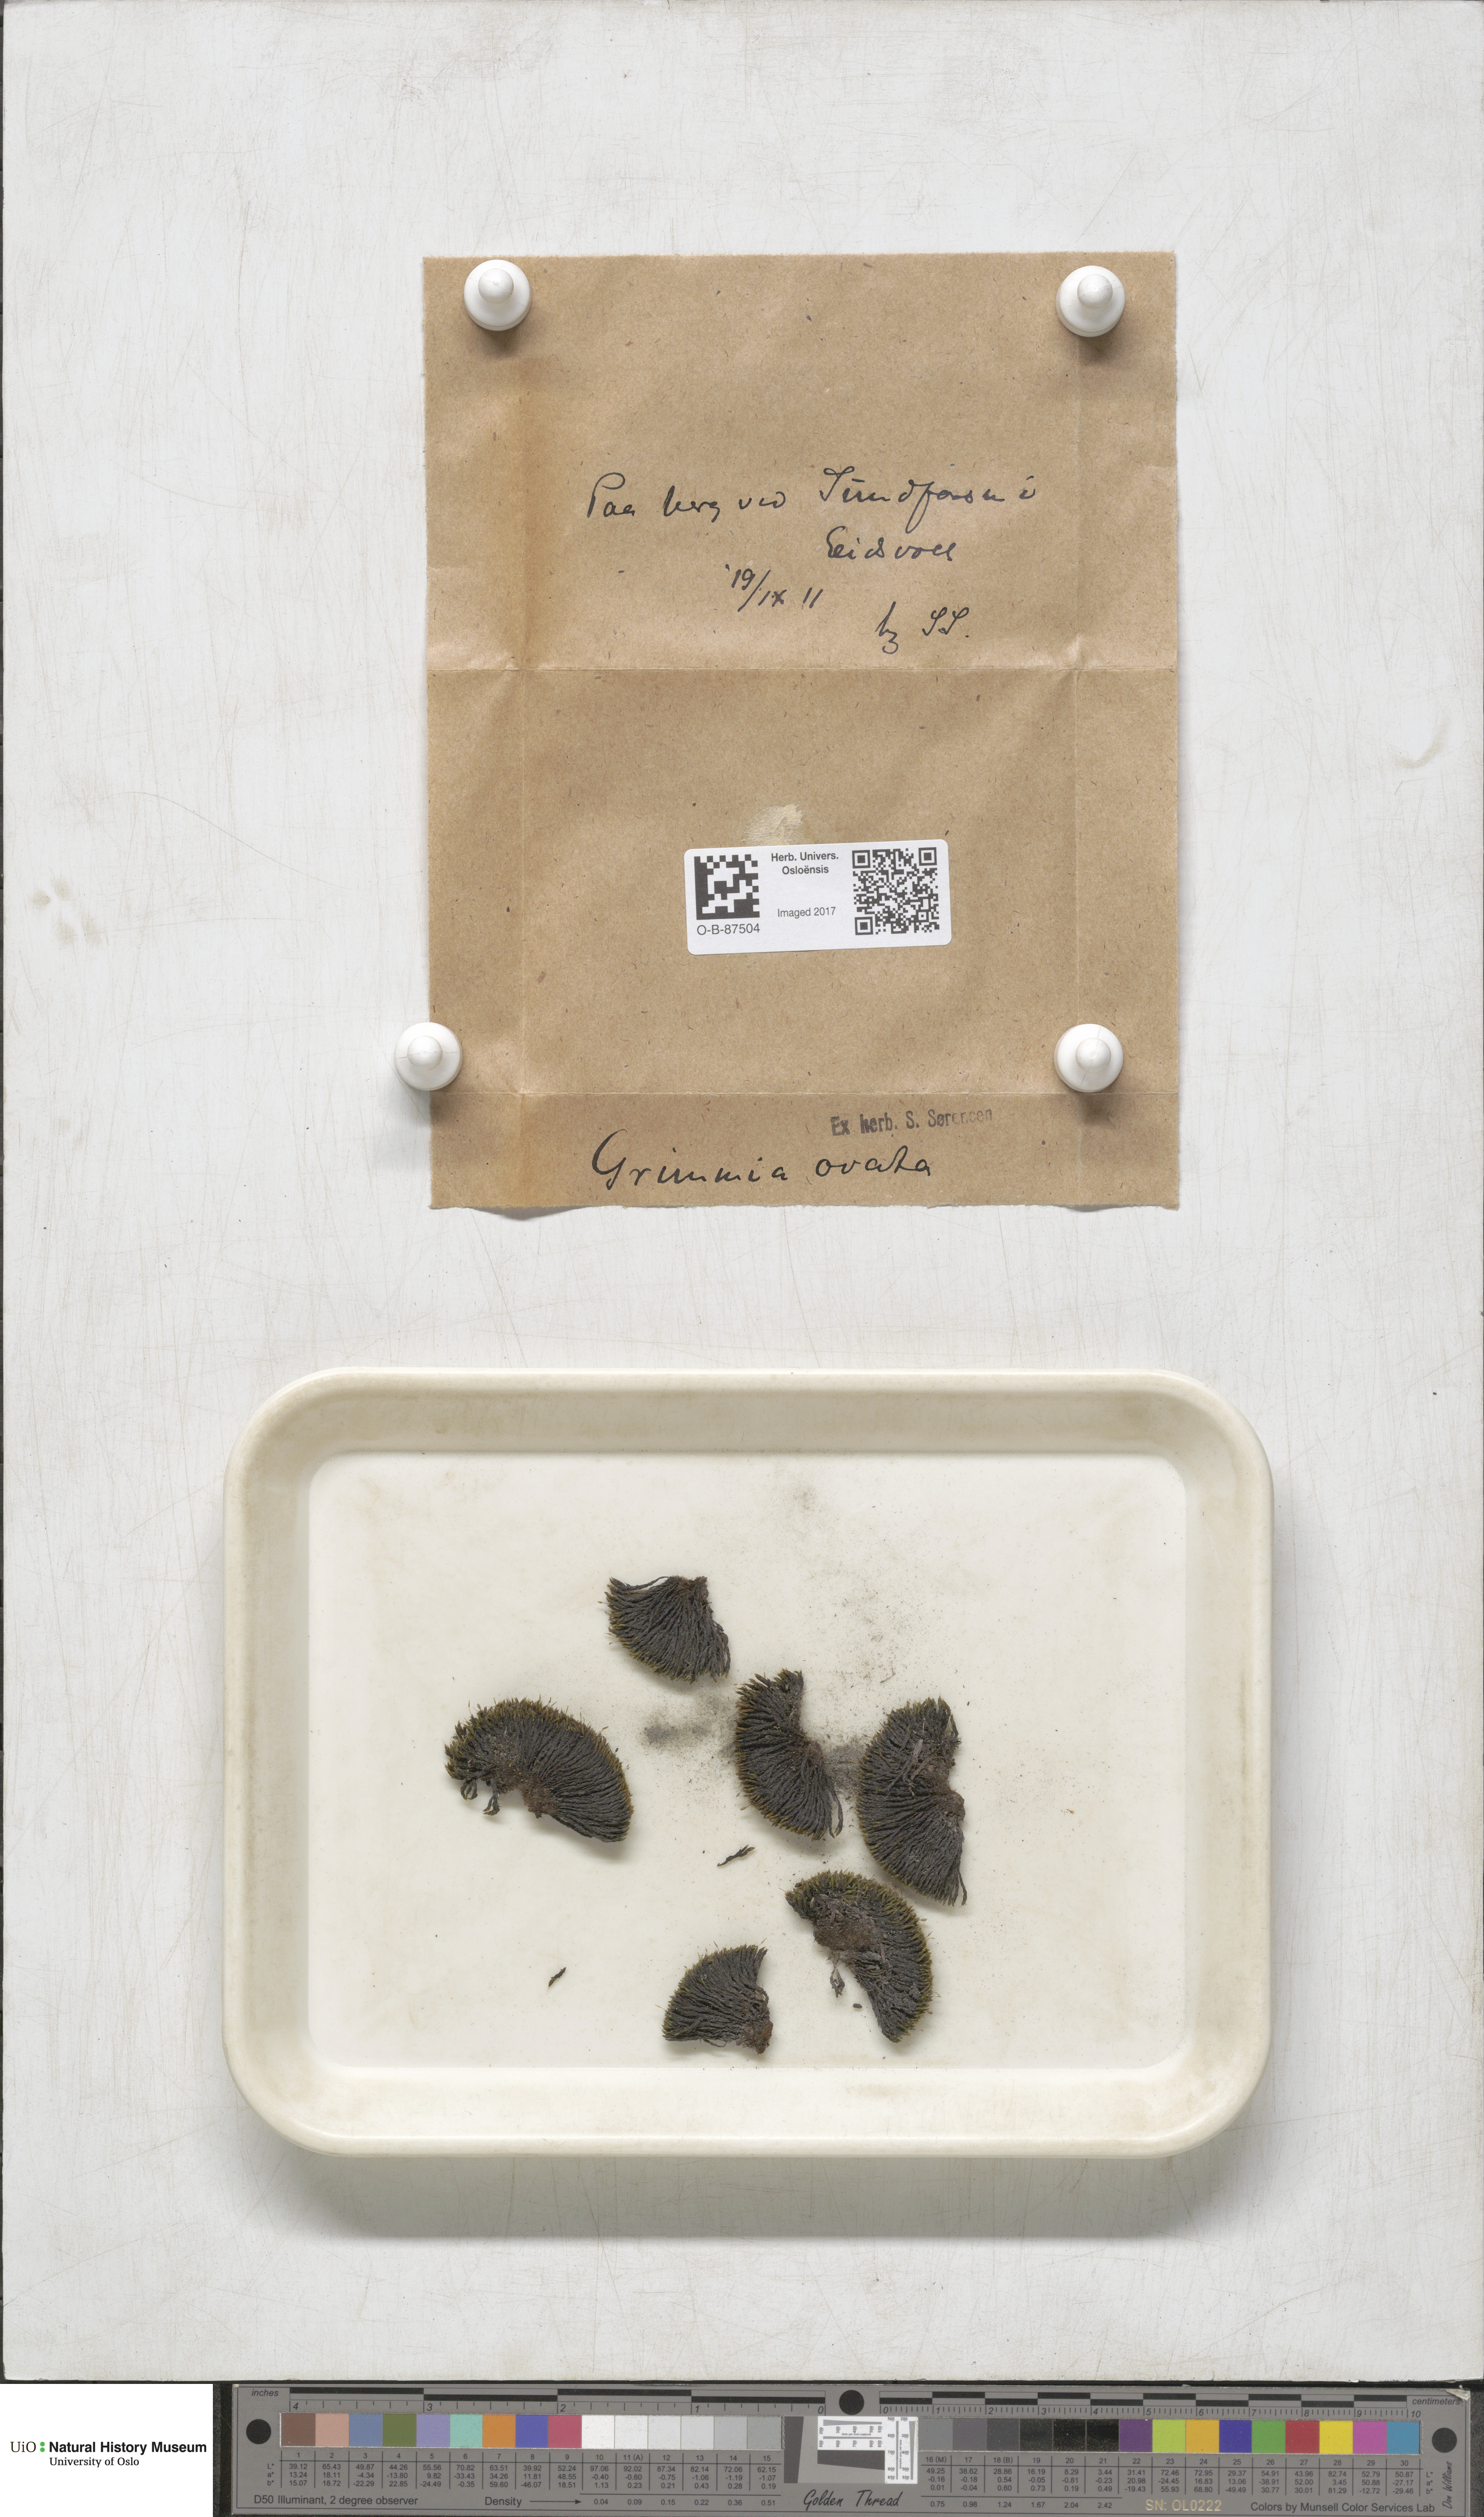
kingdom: Plantae
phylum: Bryophyta
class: Bryopsida
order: Grimmiales
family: Grimmiaceae
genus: Grimmia
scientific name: Grimmia ovalis
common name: Oval grimmia
